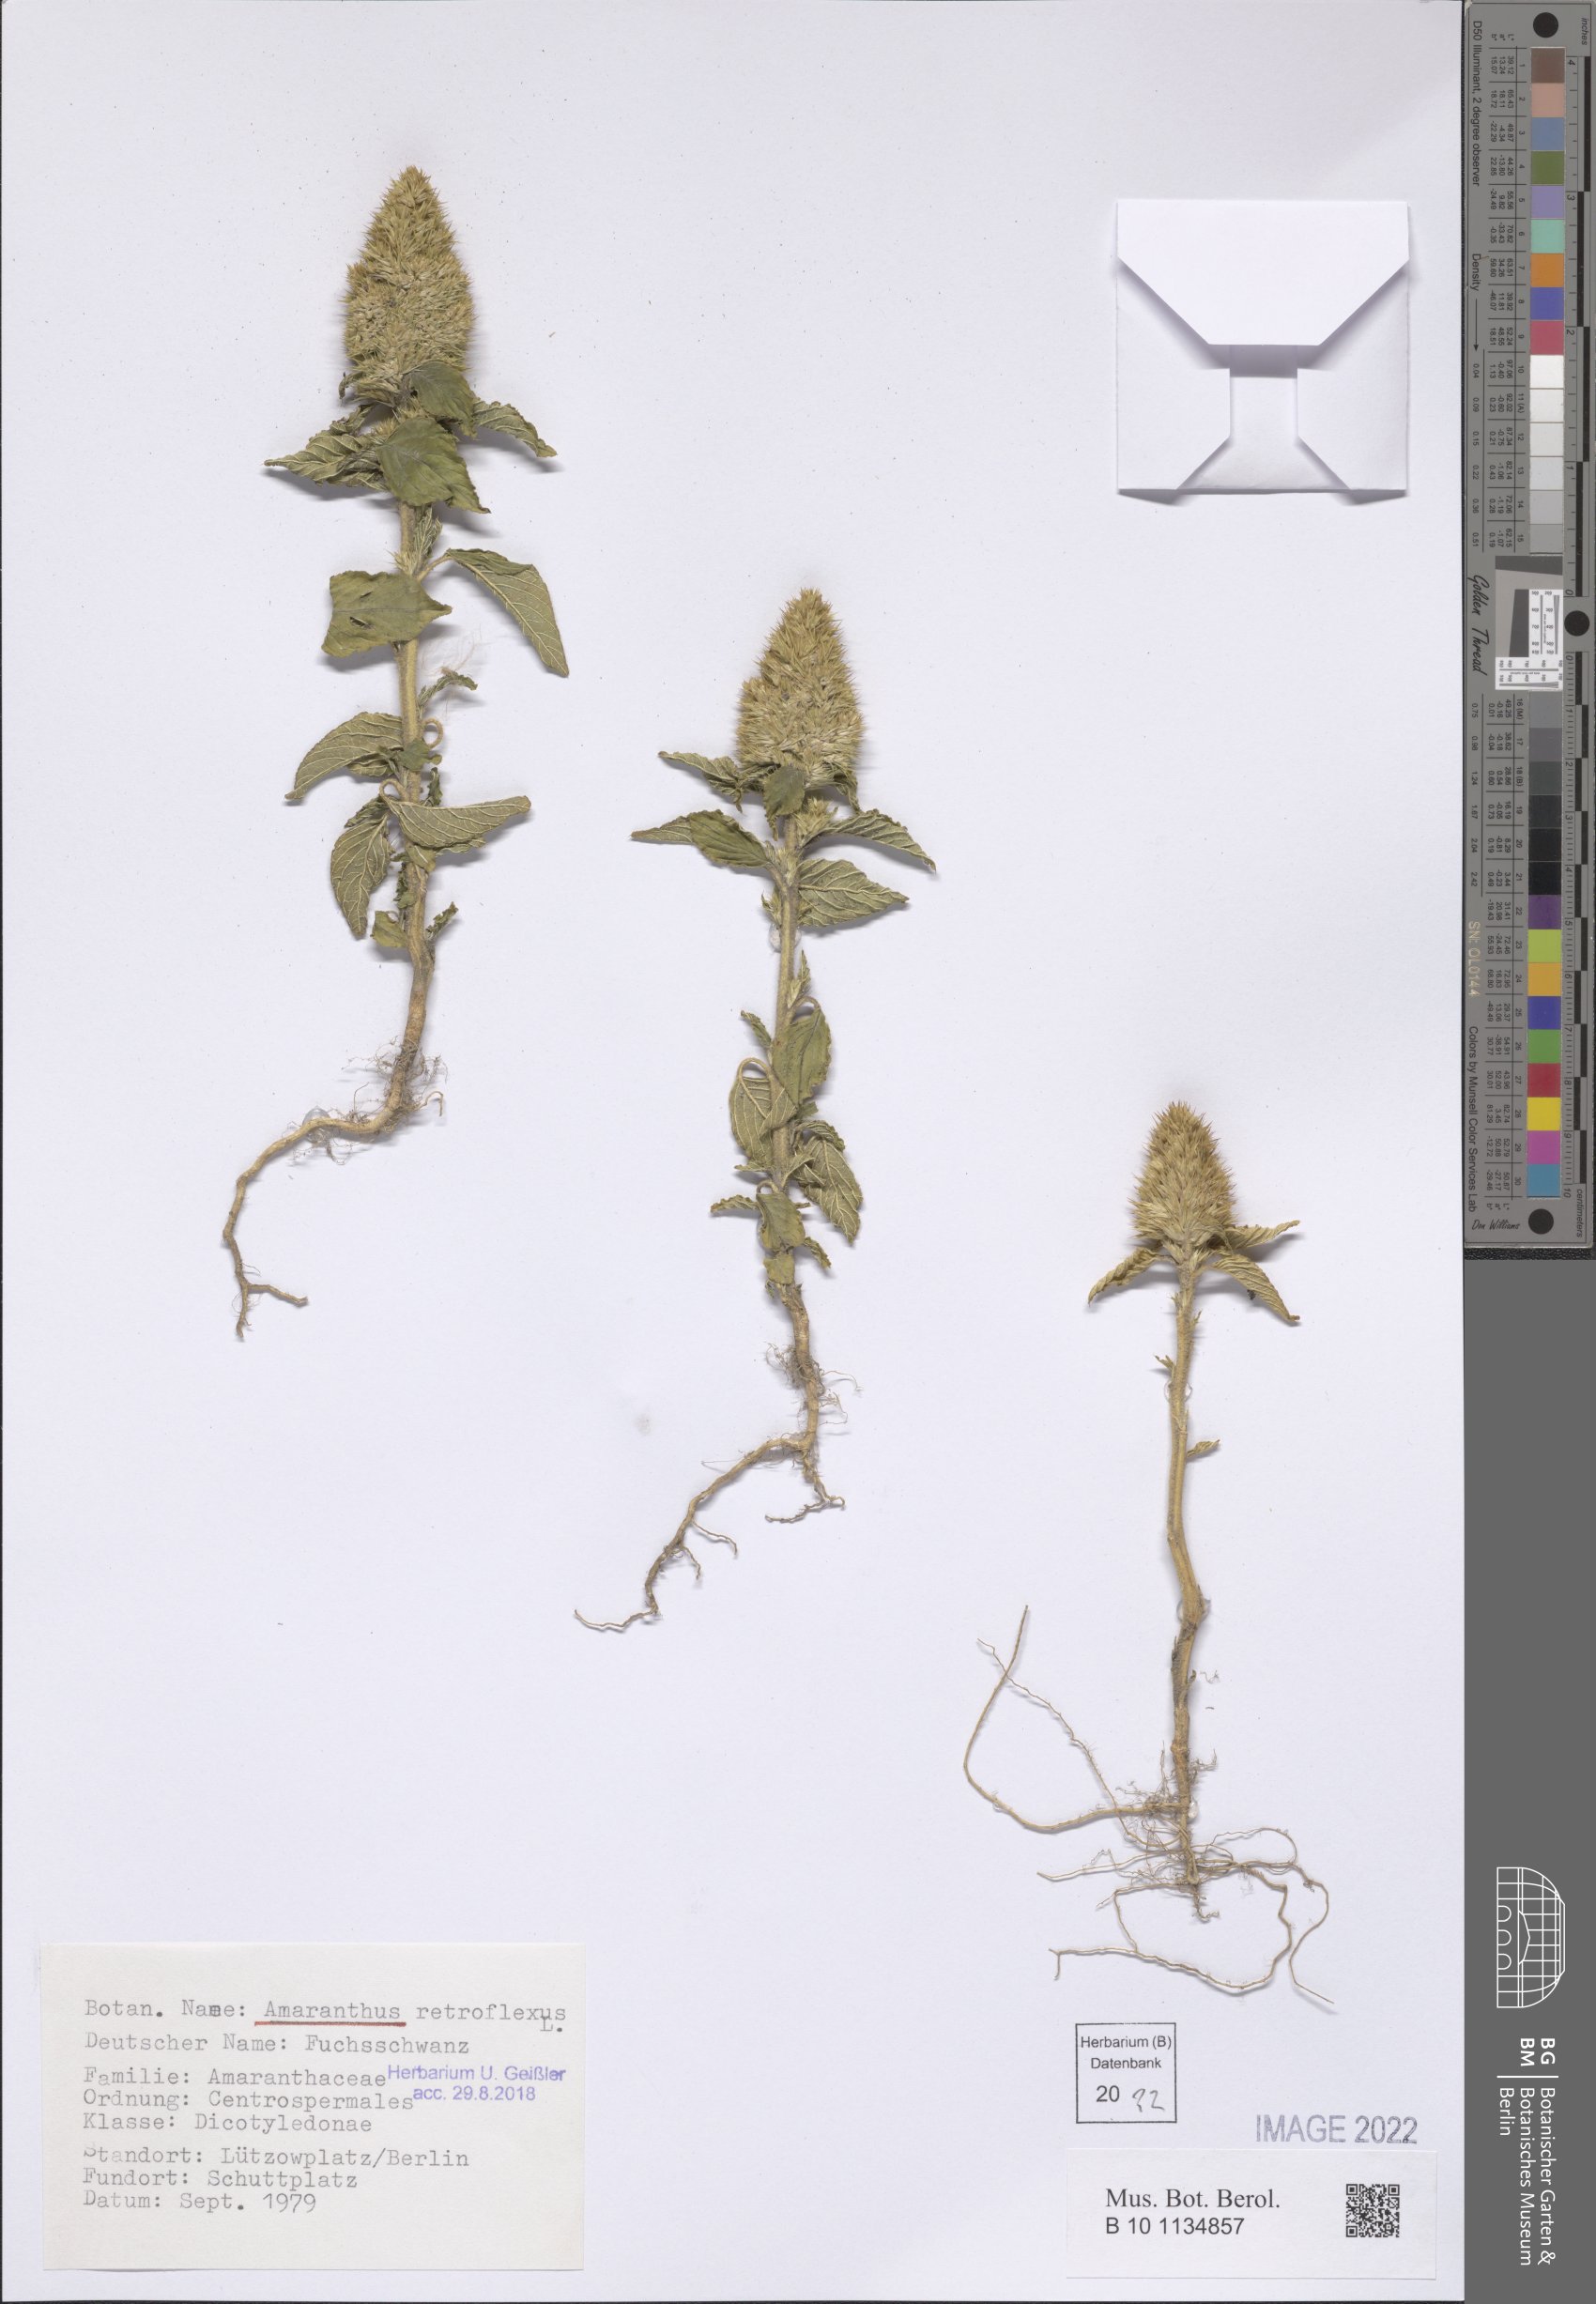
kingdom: Plantae
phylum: Tracheophyta
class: Magnoliopsida
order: Caryophyllales
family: Amaranthaceae
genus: Amaranthus
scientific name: Amaranthus retroflexus
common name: Redroot amaranth
